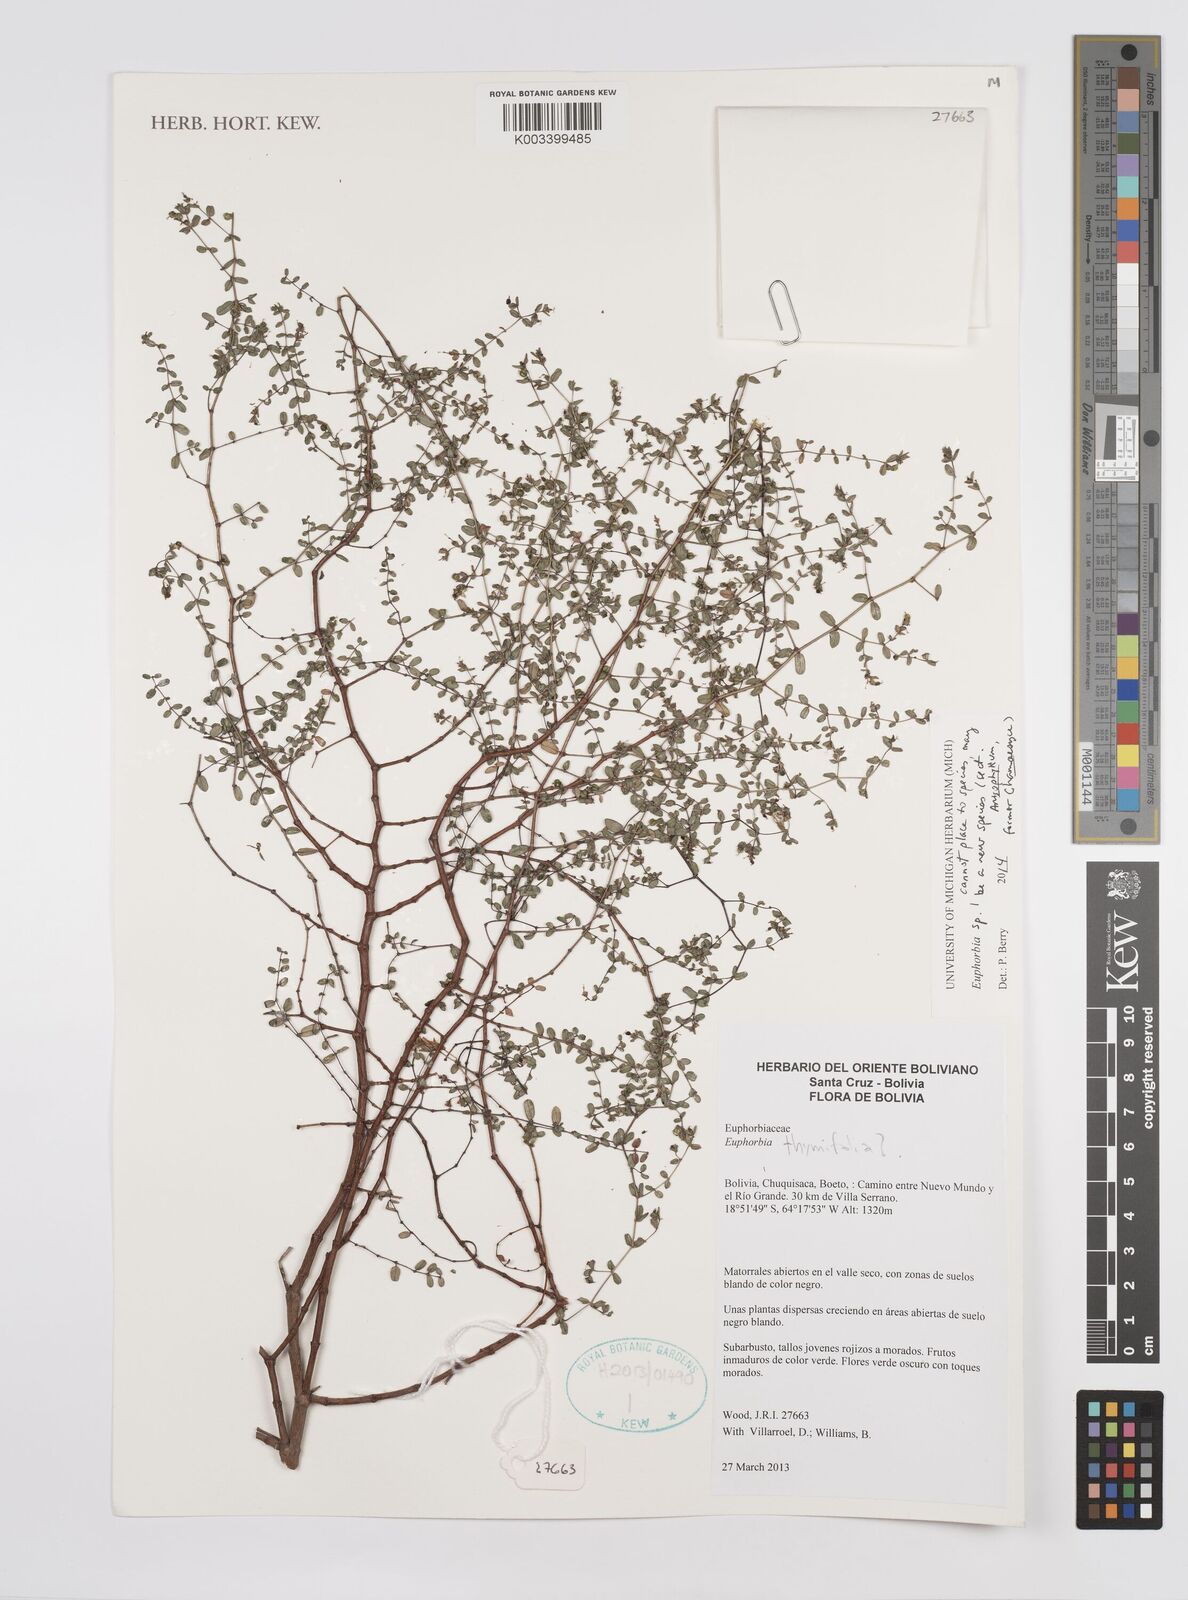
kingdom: Plantae
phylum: Tracheophyta
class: Magnoliopsida
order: Malpighiales
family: Euphorbiaceae
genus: Euphorbia
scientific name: Euphorbia
